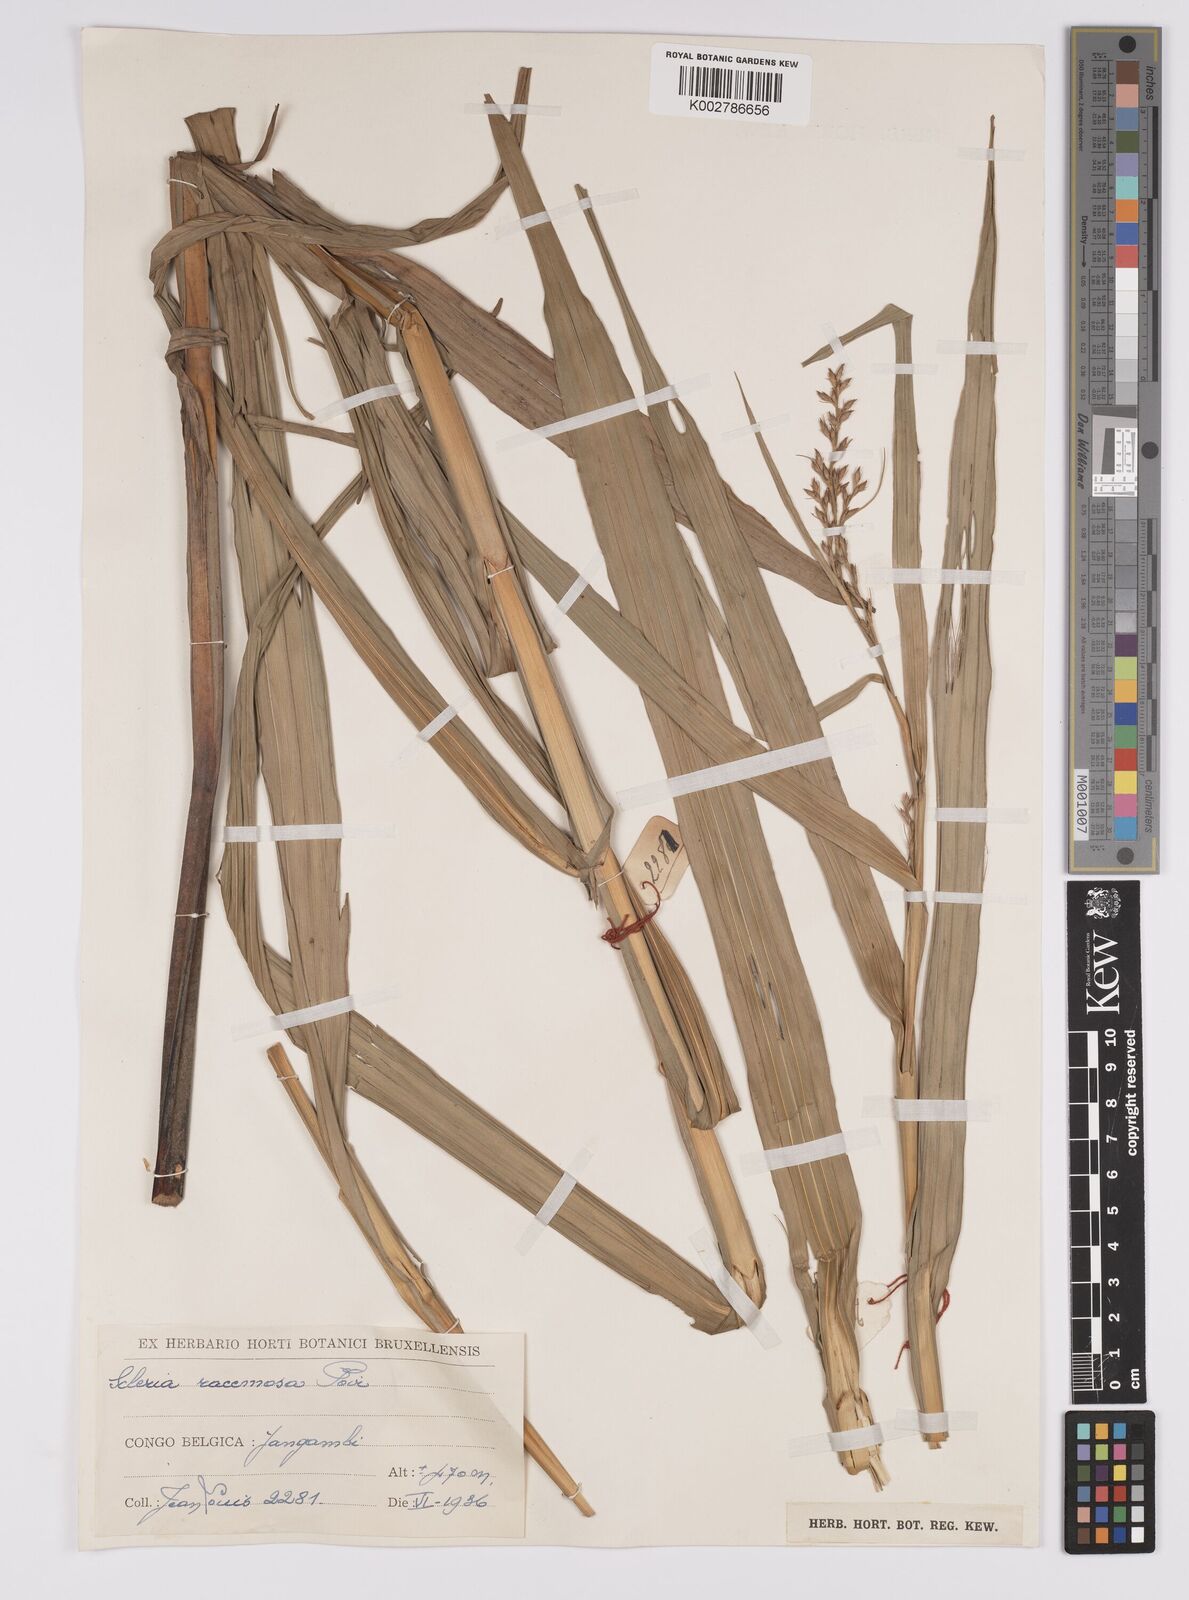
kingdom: Plantae
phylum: Tracheophyta
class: Liliopsida
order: Poales
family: Cyperaceae
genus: Scleria
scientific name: Scleria racemosa
